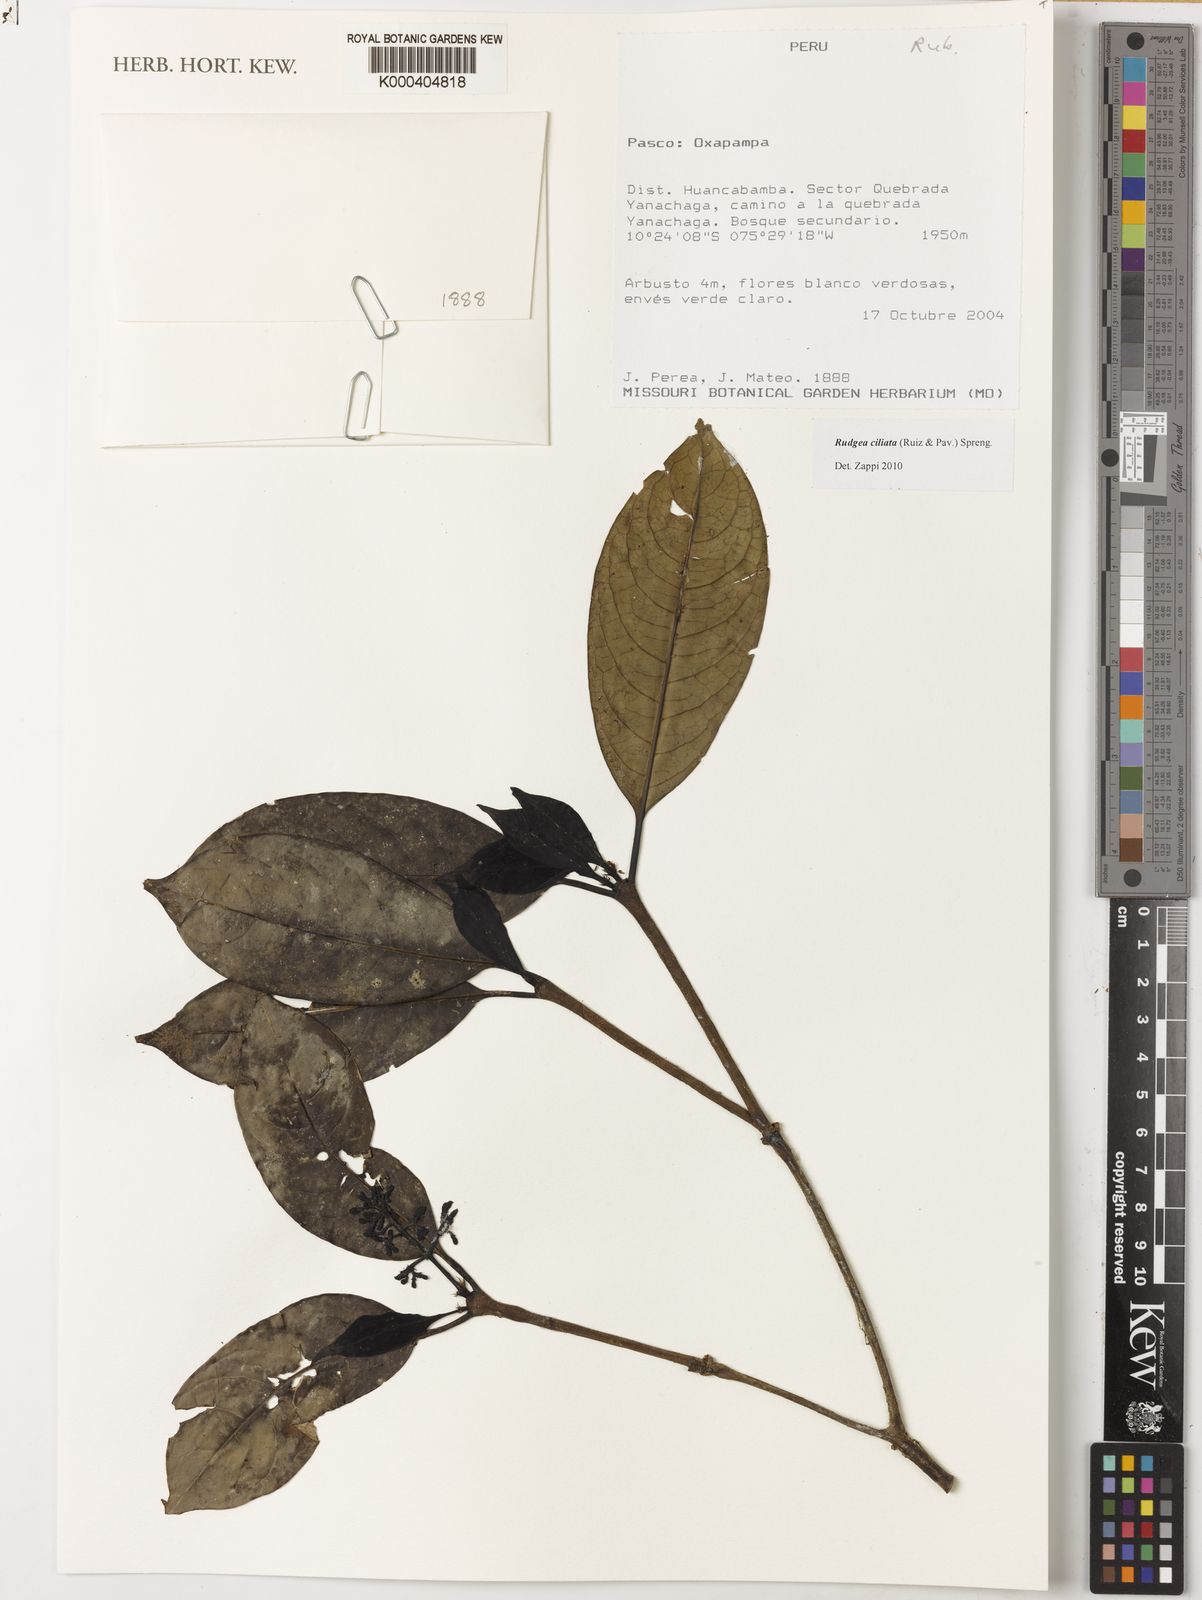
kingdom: Plantae
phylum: Tracheophyta
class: Magnoliopsida
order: Gentianales
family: Rubiaceae
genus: Rudgea
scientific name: Rudgea ciliata
